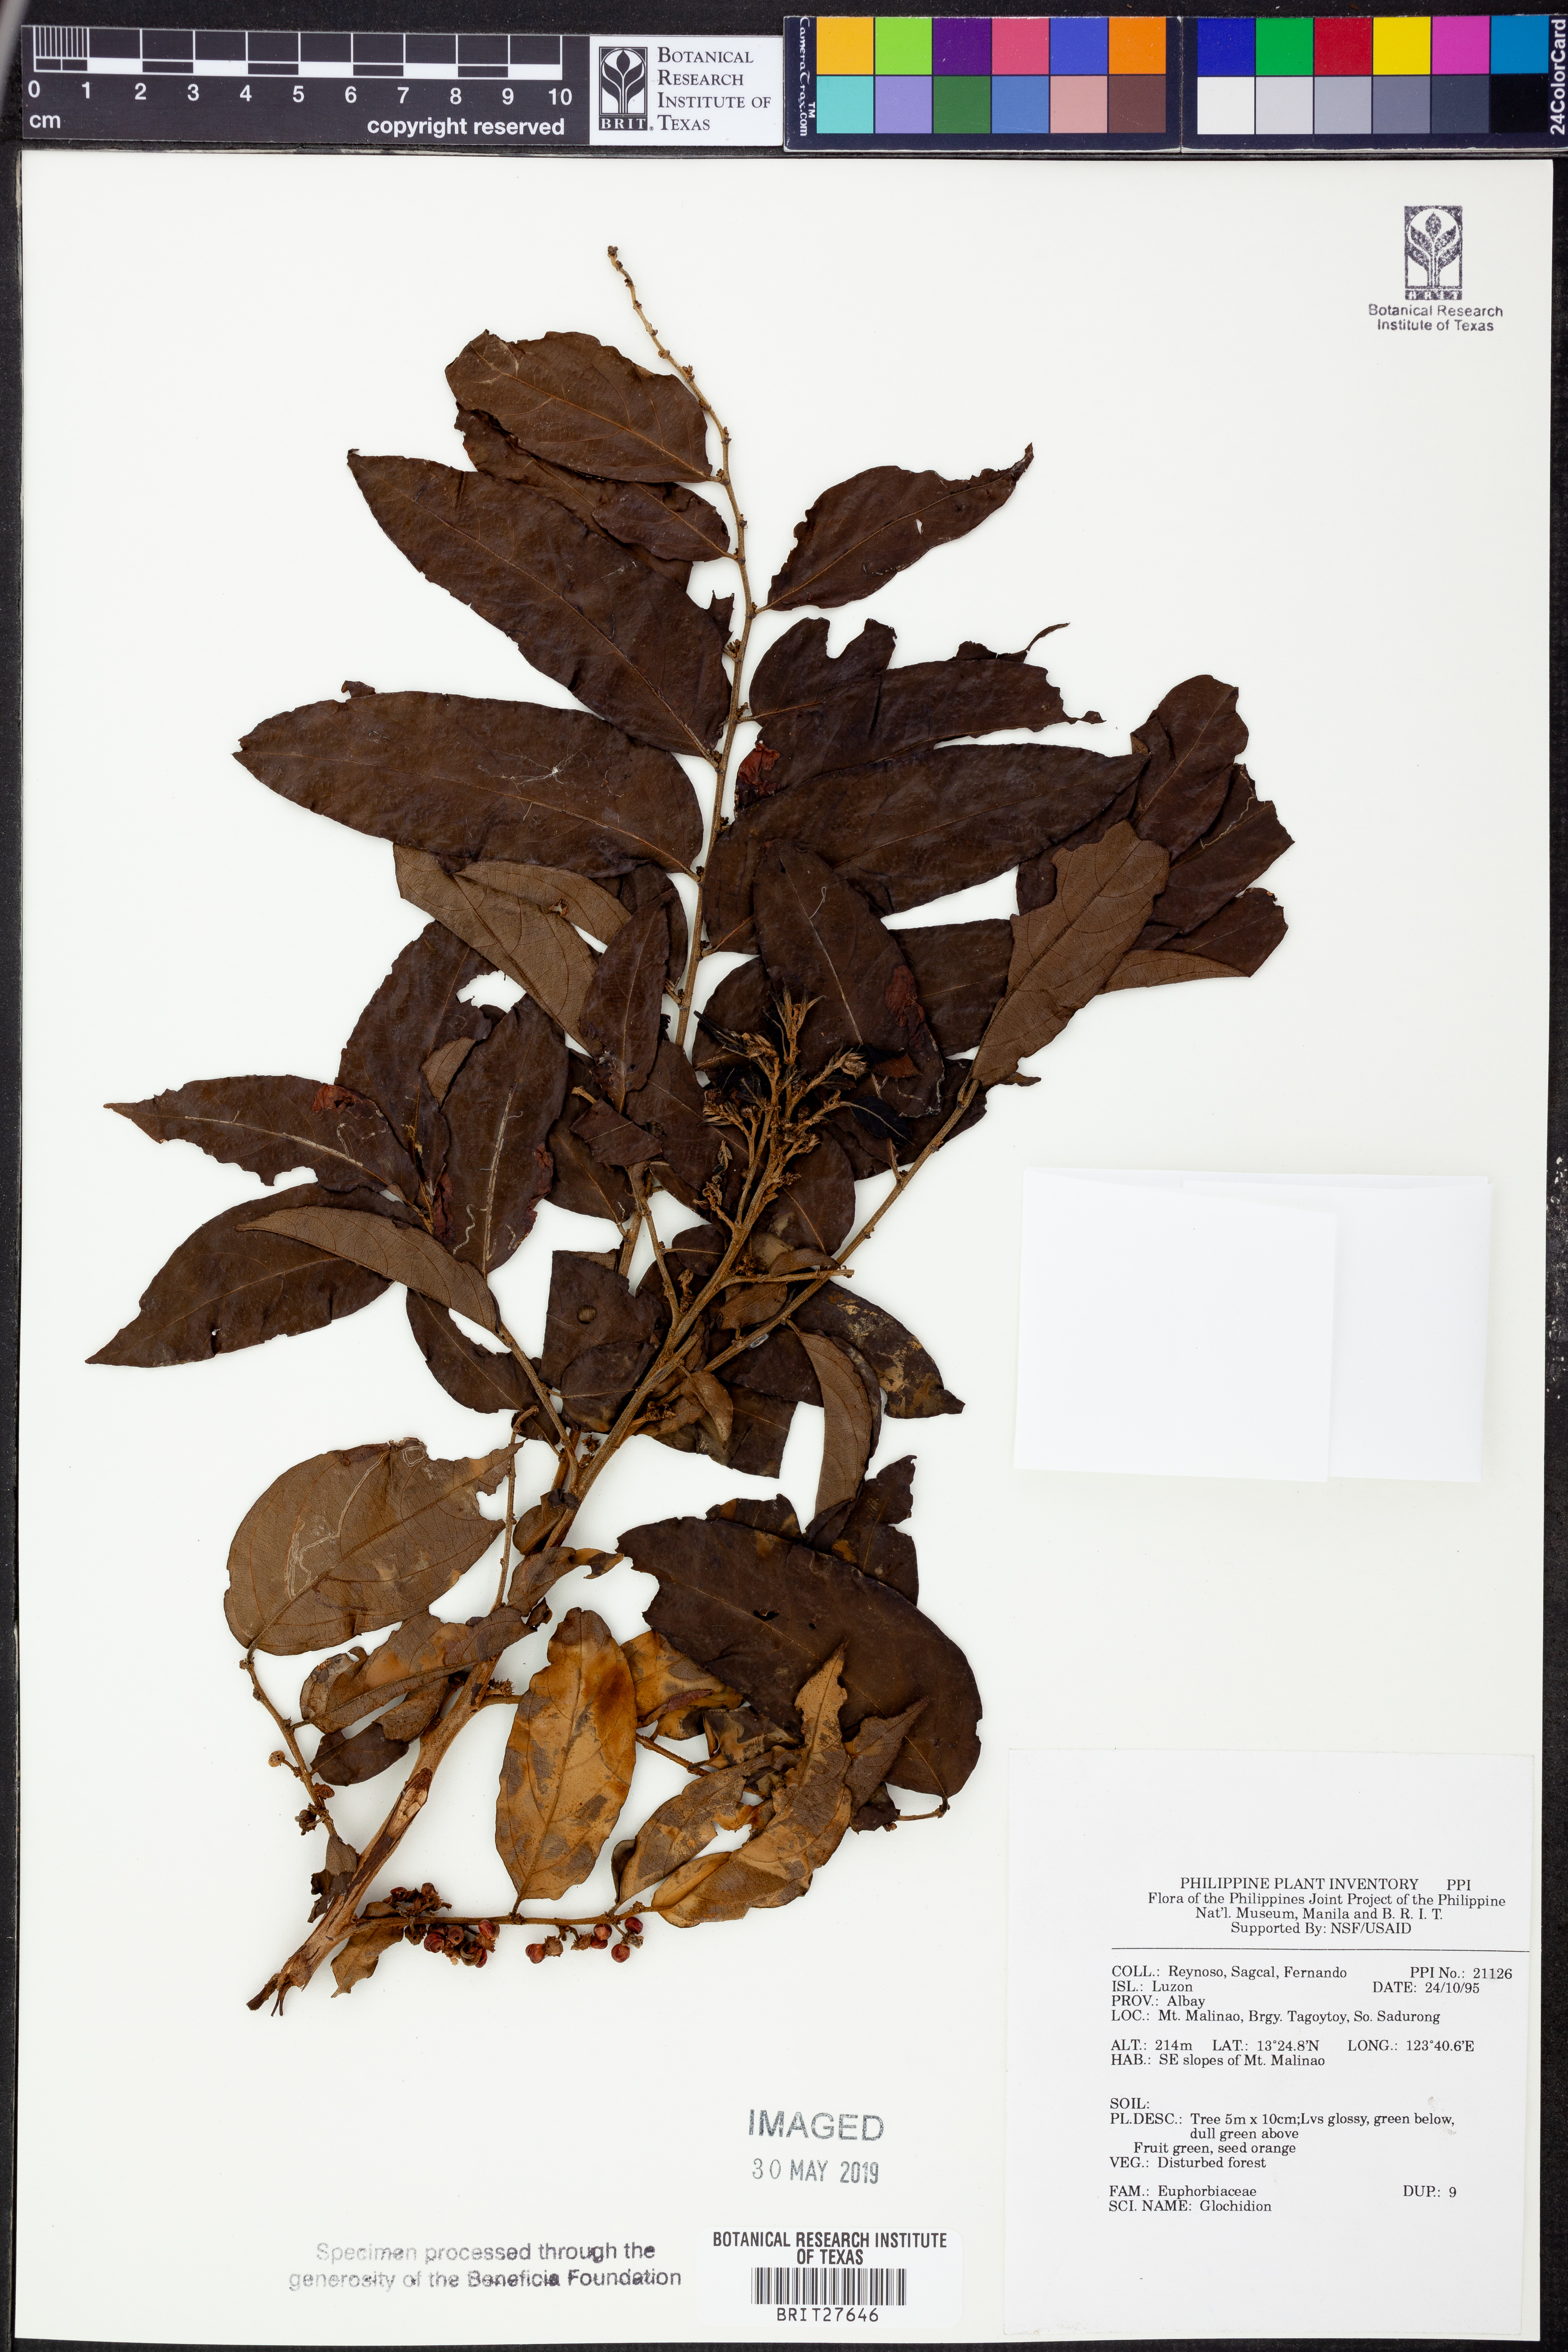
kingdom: Plantae
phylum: Tracheophyta
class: Magnoliopsida
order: Malpighiales
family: Phyllanthaceae
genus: Glochidion
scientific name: Glochidion
